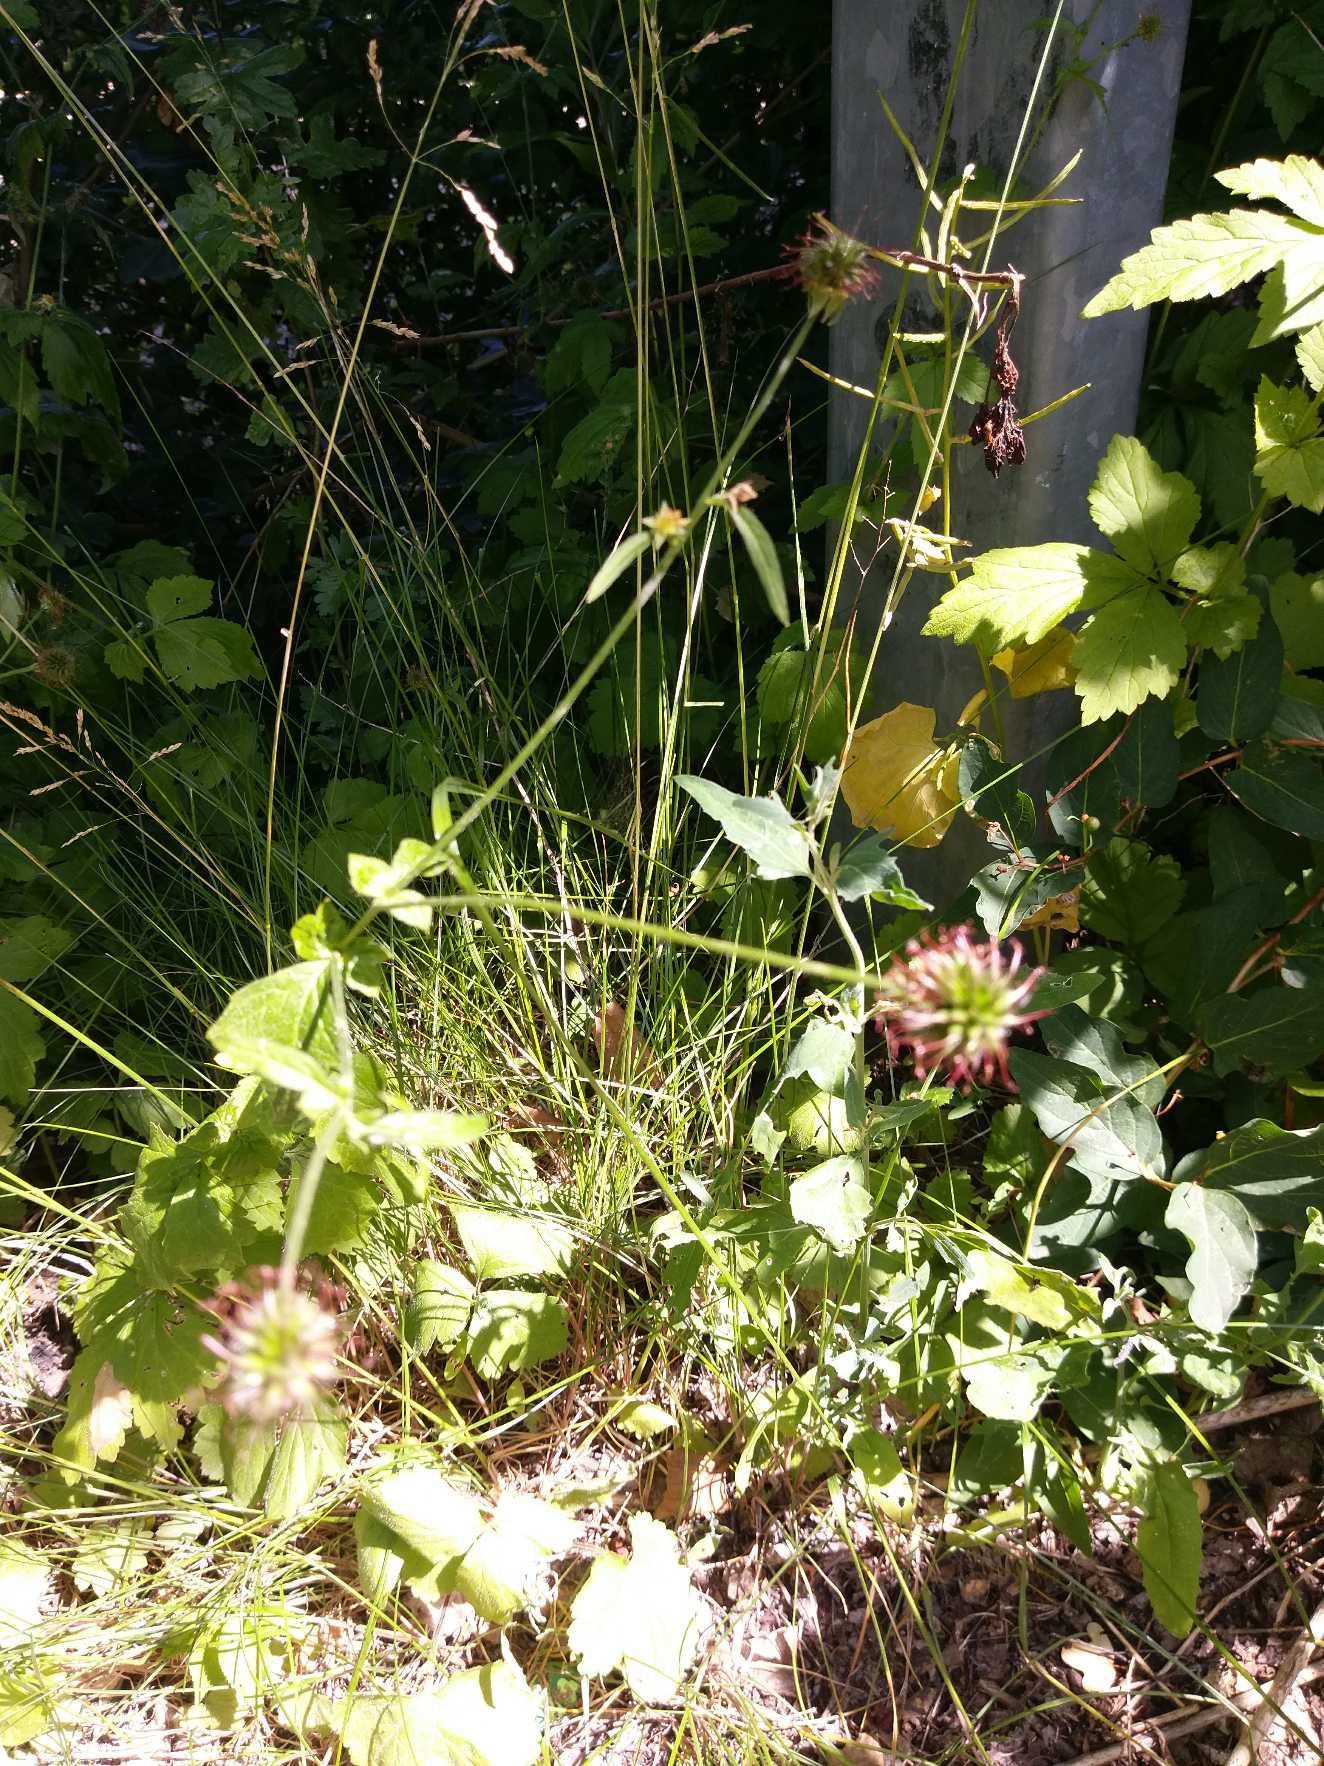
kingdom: Plantae
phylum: Tracheophyta
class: Magnoliopsida
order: Rosales
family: Rosaceae
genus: Geum
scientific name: Geum urbanum
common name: Feber-nellikerod
